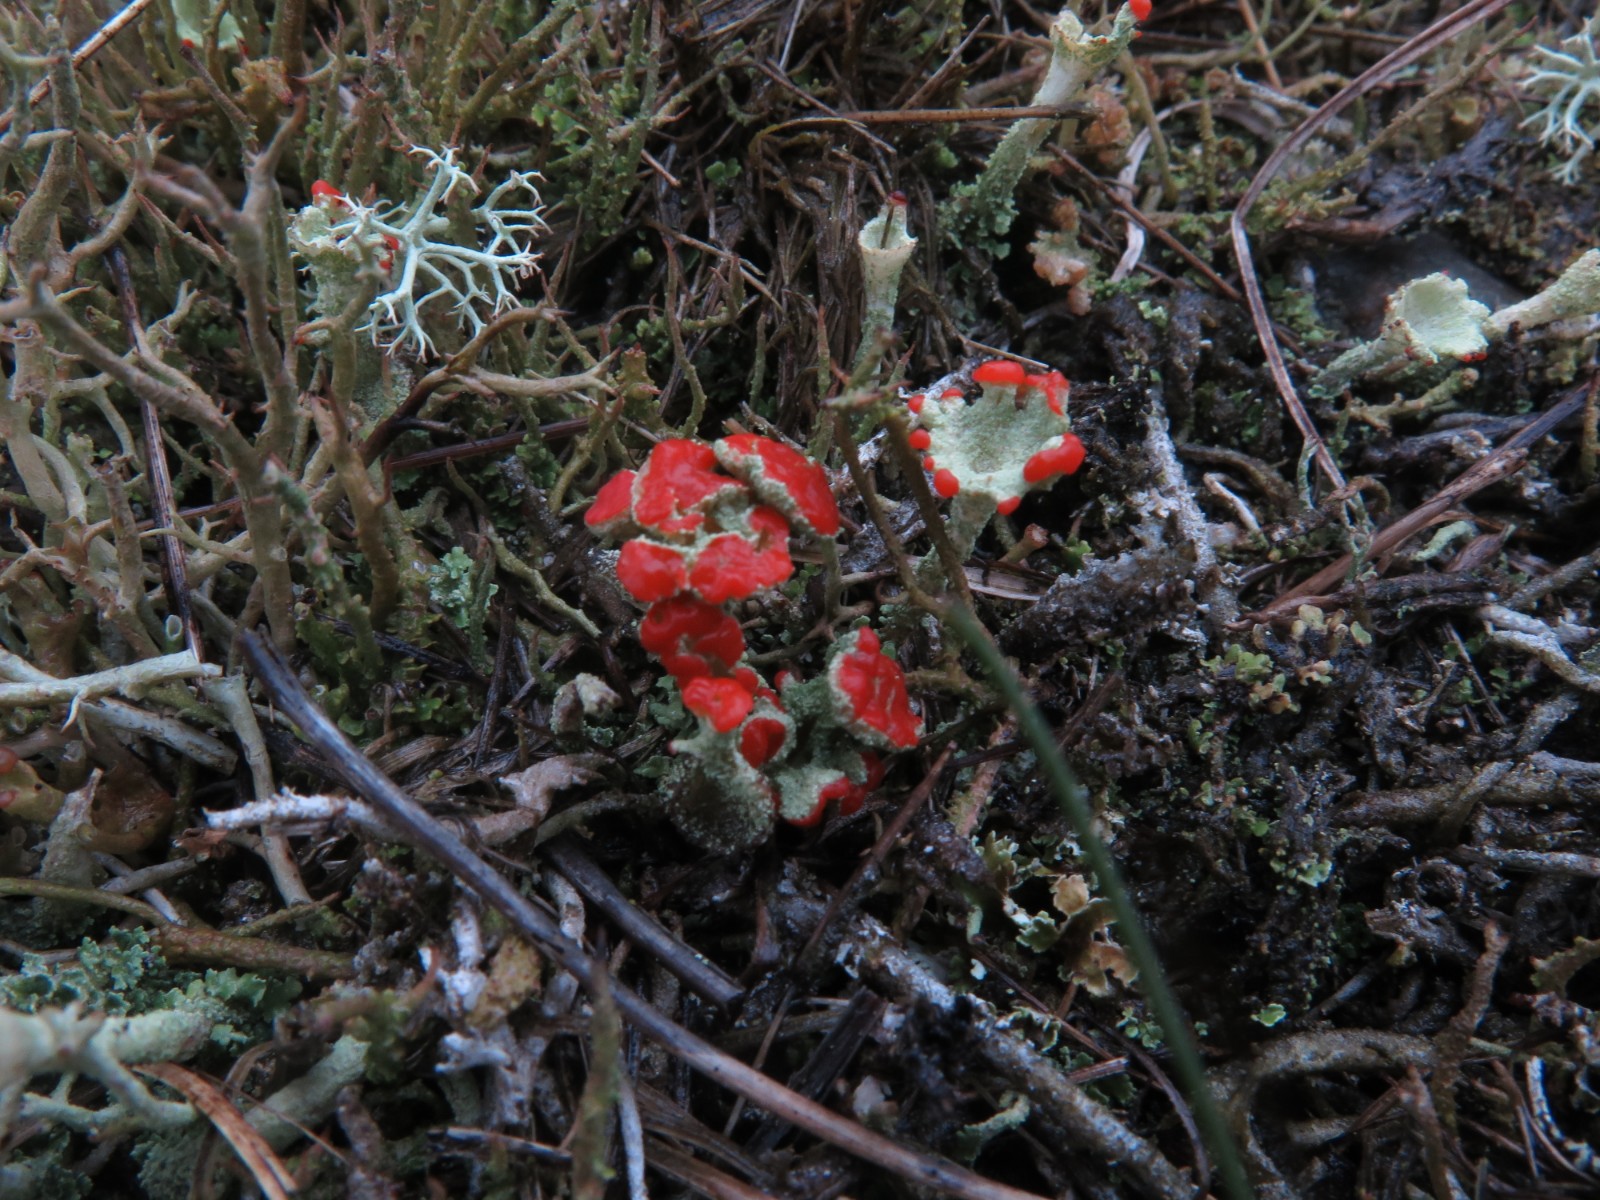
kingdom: Fungi
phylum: Ascomycota
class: Lecanoromycetes
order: Lecanorales
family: Cladoniaceae
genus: Cladonia
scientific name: Cladonia diversa
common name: rød bægerlav
